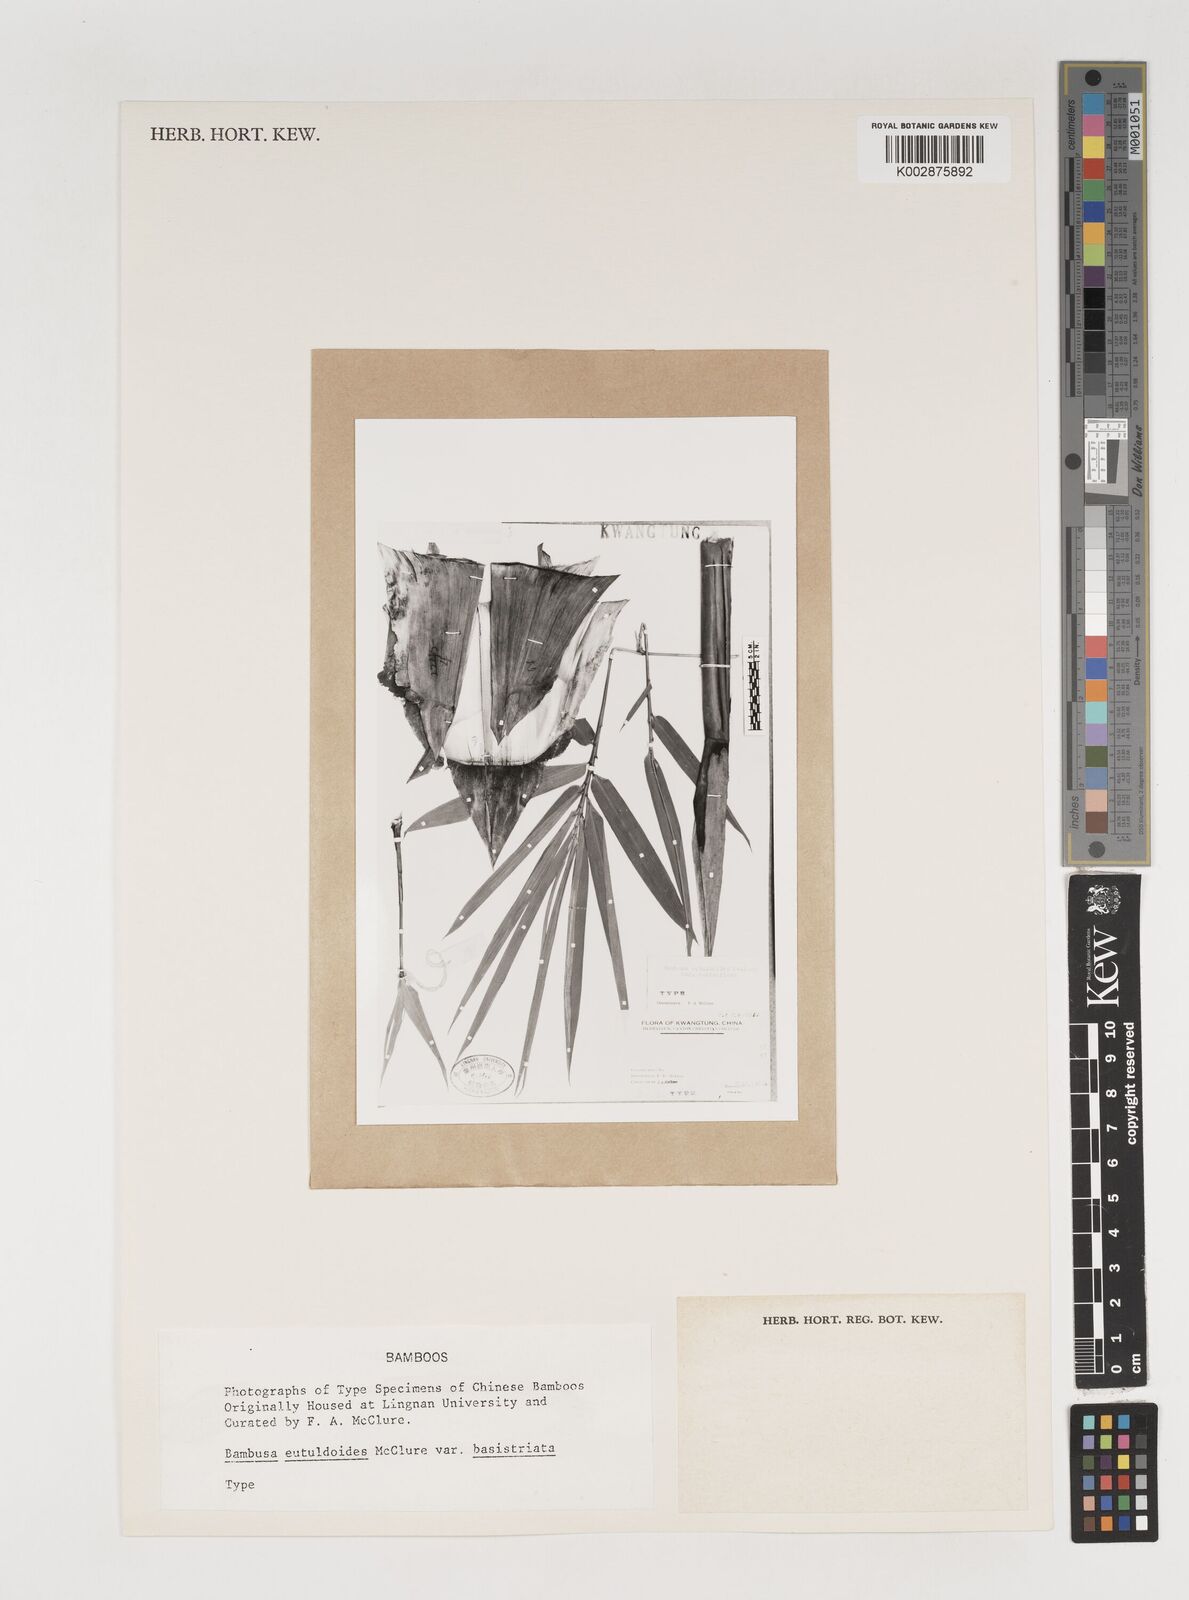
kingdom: Plantae
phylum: Tracheophyta
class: Liliopsida
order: Poales
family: Poaceae
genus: Bambusa
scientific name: Bambusa eutuldoides
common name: Dai ngan bamboo
